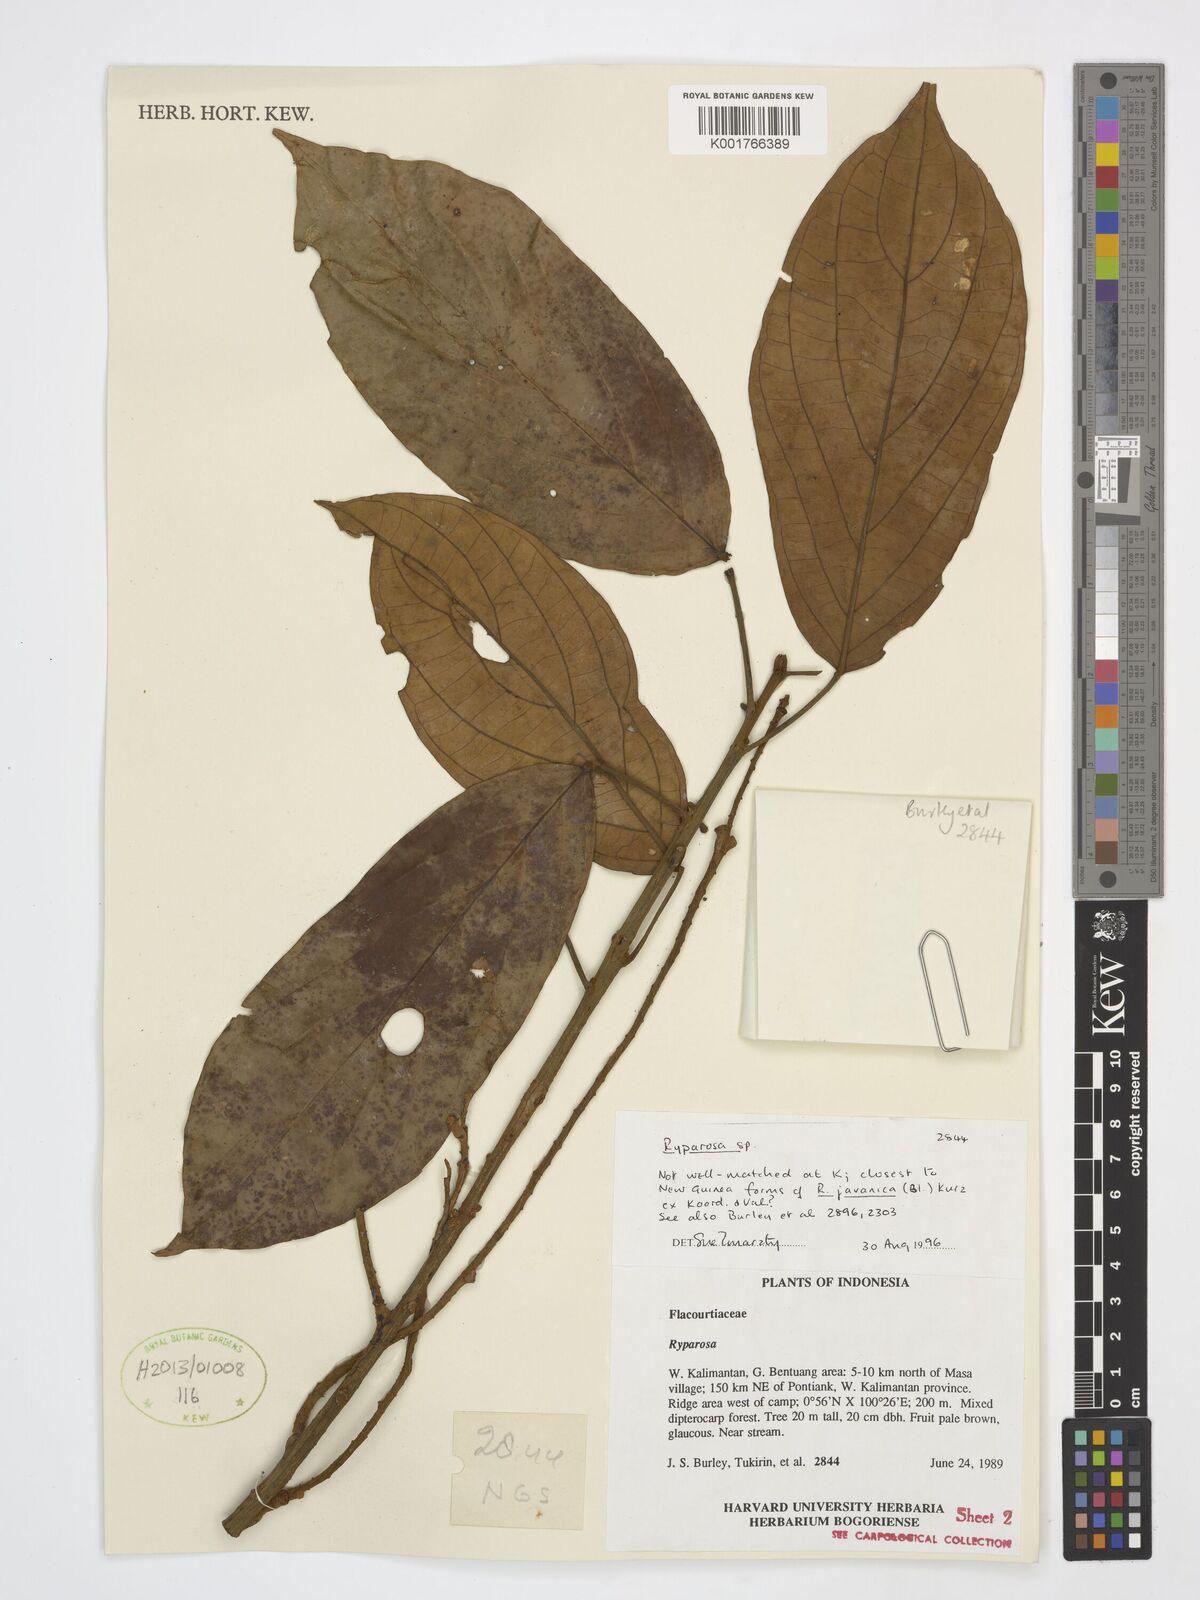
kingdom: Plantae
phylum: Tracheophyta
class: Magnoliopsida
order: Malpighiales
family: Achariaceae
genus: Ryparosa
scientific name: Ryparosa
